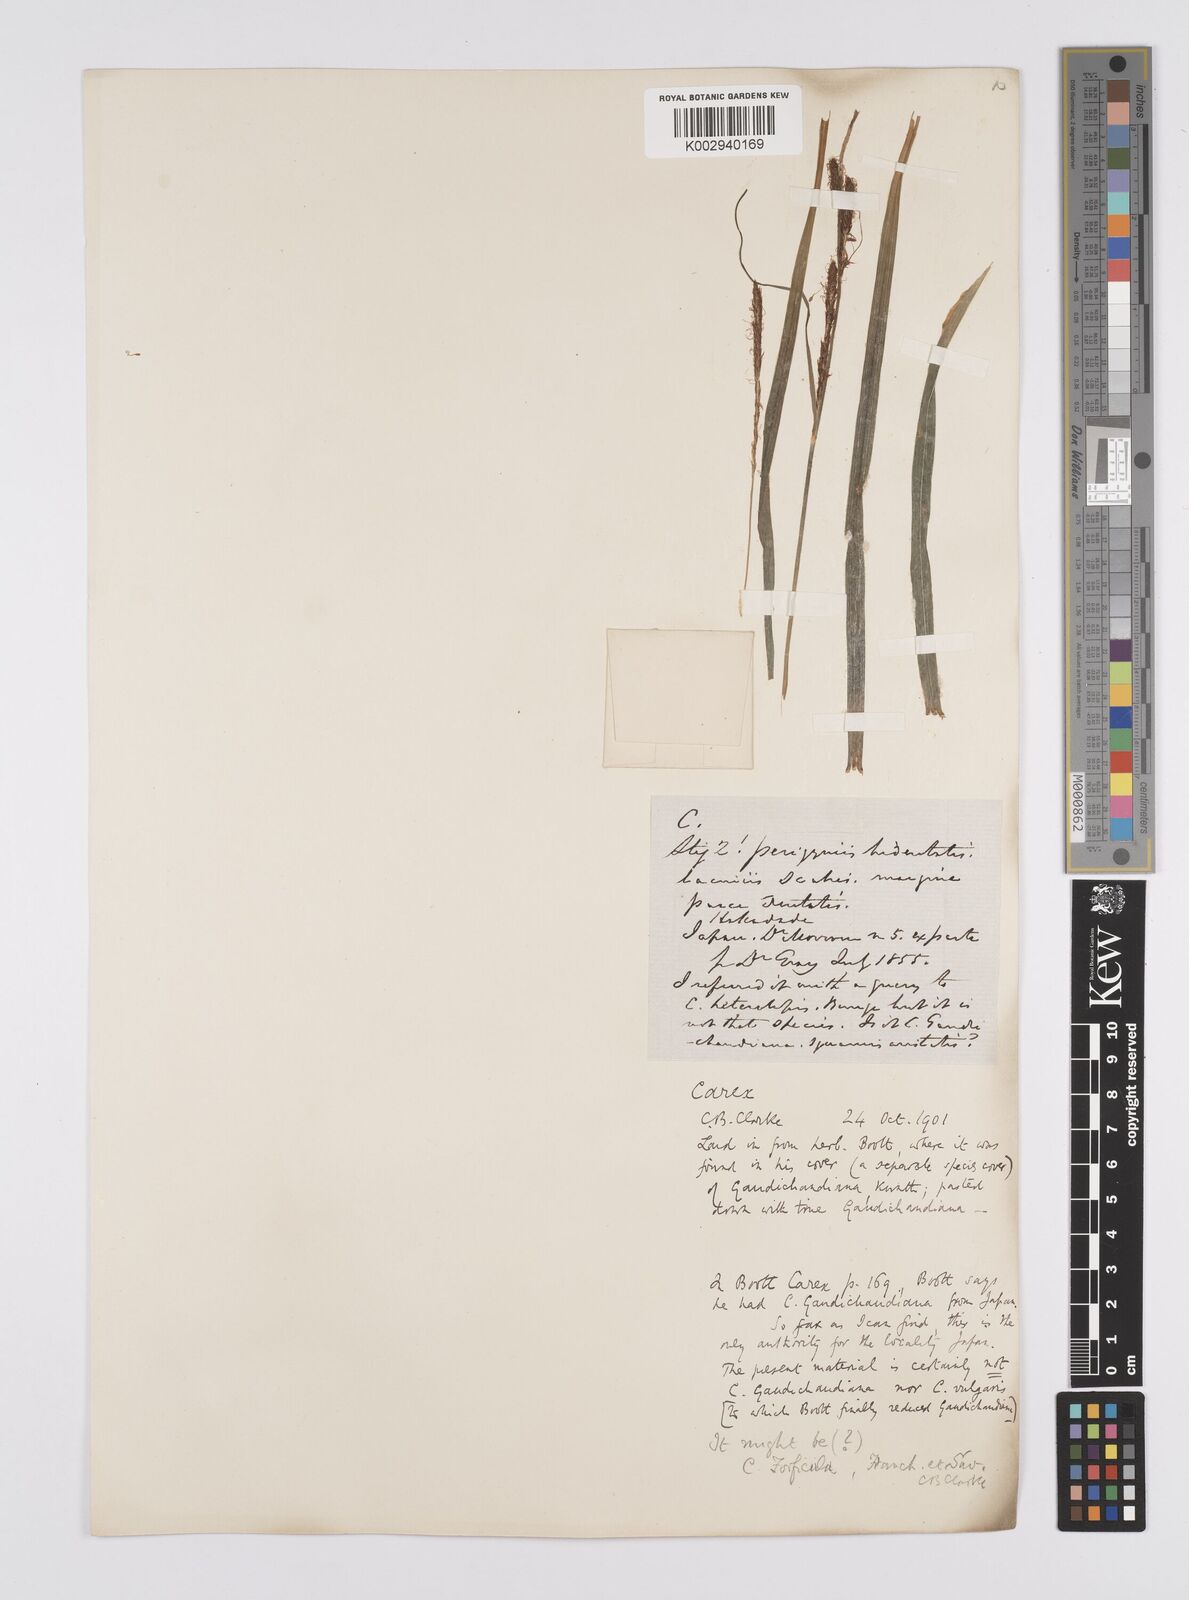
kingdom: Plantae
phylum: Tracheophyta
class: Liliopsida
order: Poales
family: Cyperaceae
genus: Carex
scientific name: Carex forficula
